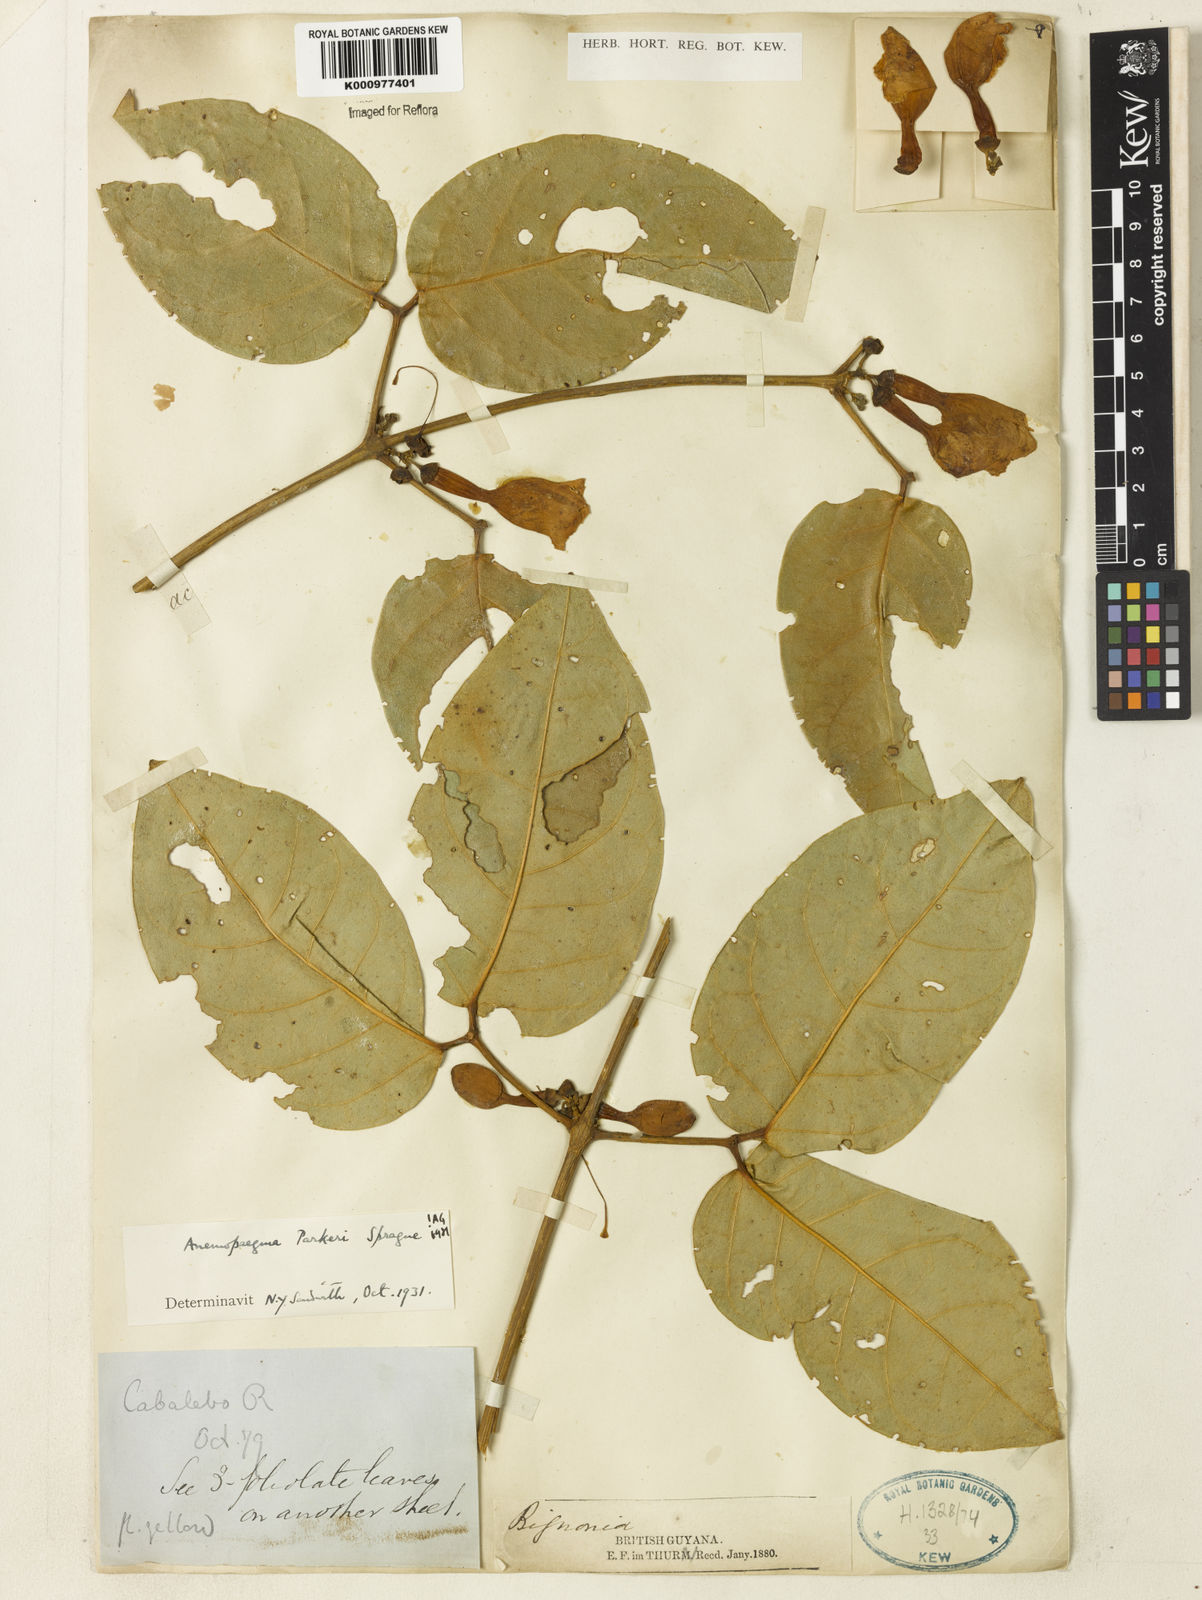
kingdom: Plantae
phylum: Tracheophyta
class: Magnoliopsida
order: Lamiales
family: Bignoniaceae
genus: Anemopaegma
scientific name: Anemopaegma parkeri
